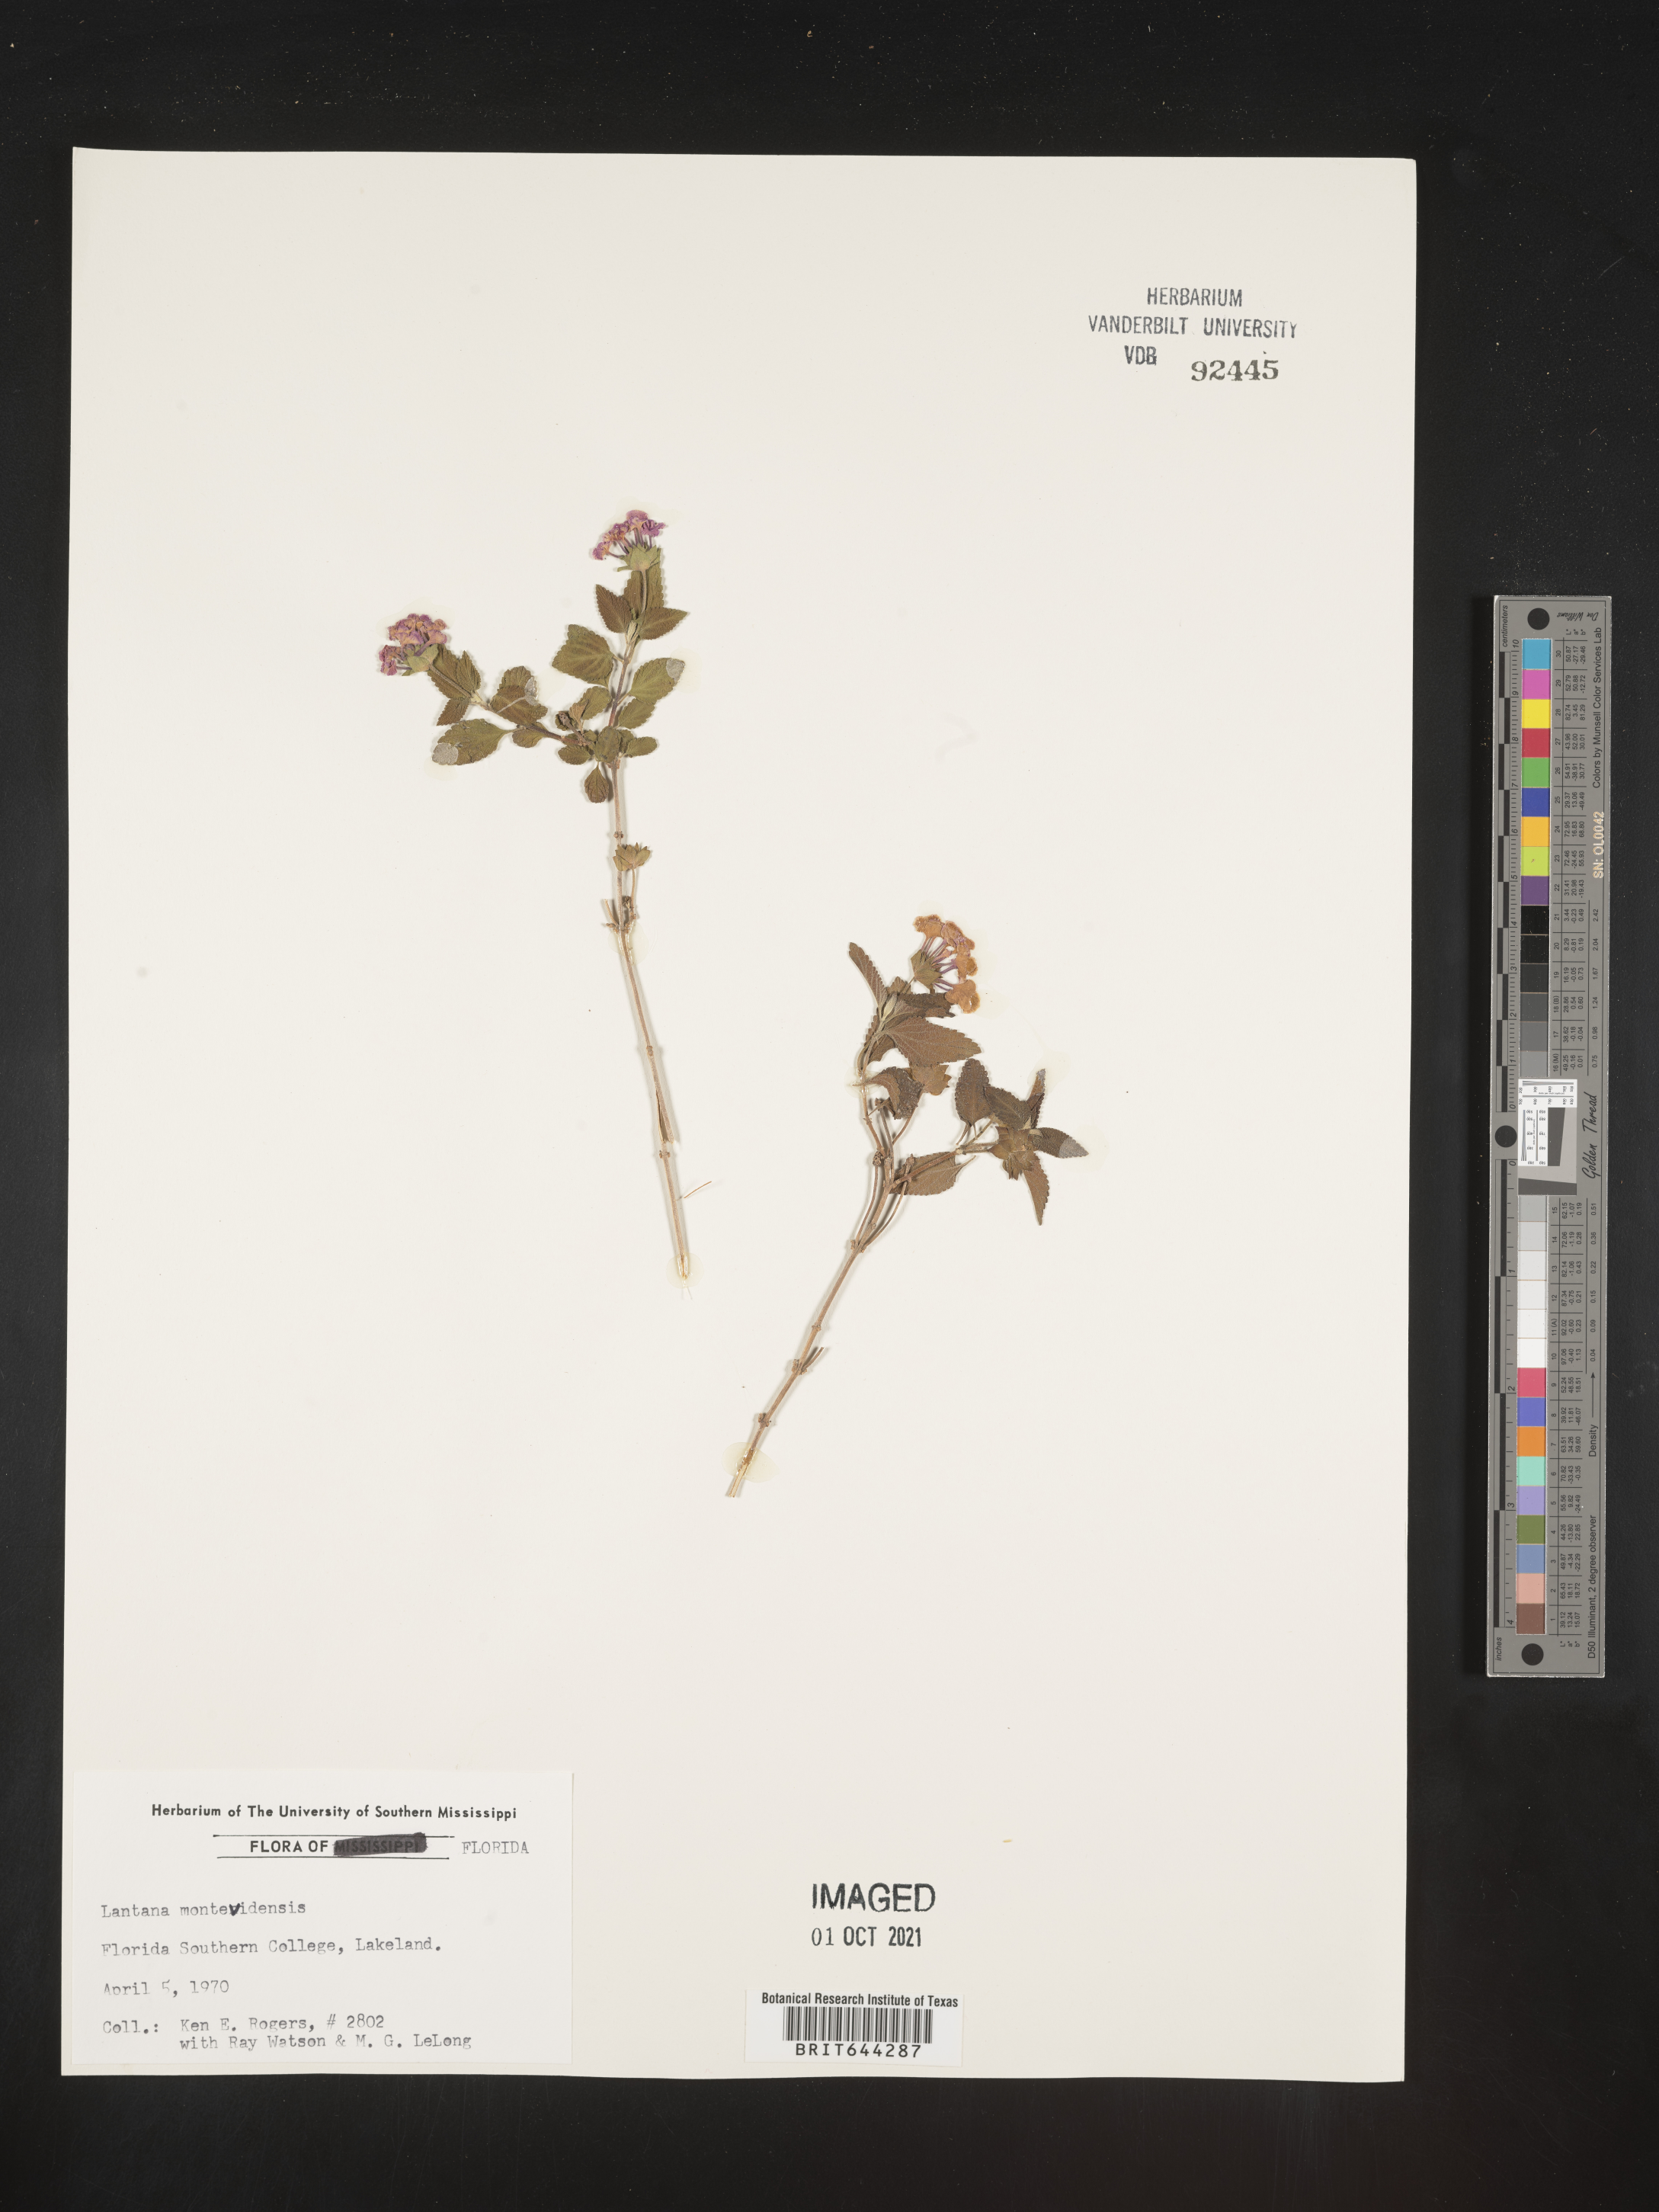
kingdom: Plantae
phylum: Tracheophyta
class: Magnoliopsida
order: Lamiales
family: Verbenaceae
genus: Lantana
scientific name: Lantana
